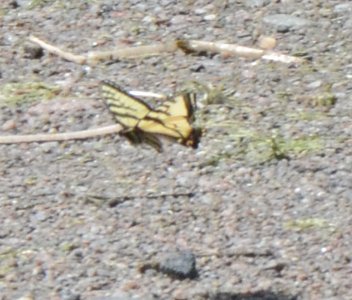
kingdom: Animalia
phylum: Arthropoda
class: Insecta
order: Lepidoptera
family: Papilionidae
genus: Pterourus
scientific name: Pterourus canadensis
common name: Canadian Tiger Swallowtail
